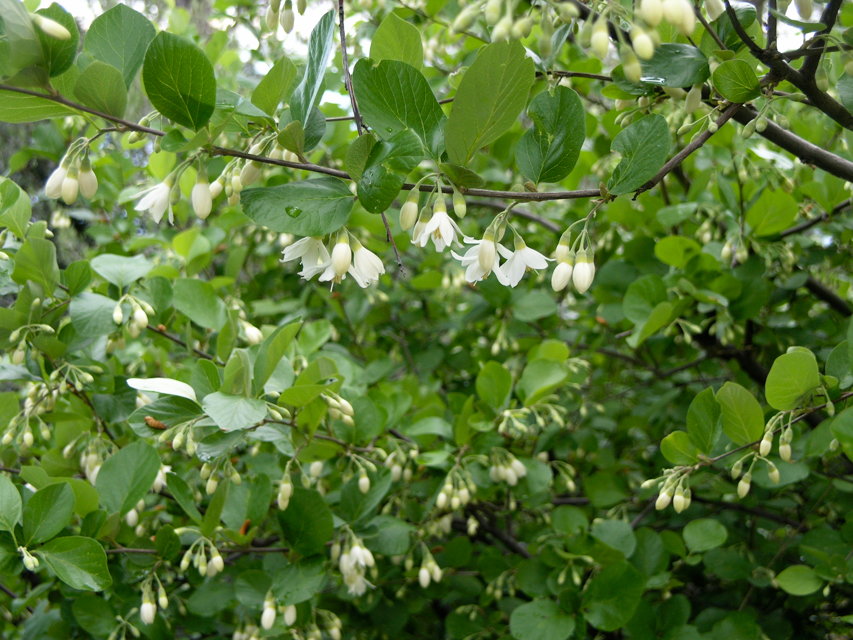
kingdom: Plantae
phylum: Tracheophyta
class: Magnoliopsida
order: Ericales
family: Styracaceae
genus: Styrax
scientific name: Styrax officinalis
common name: Storax
